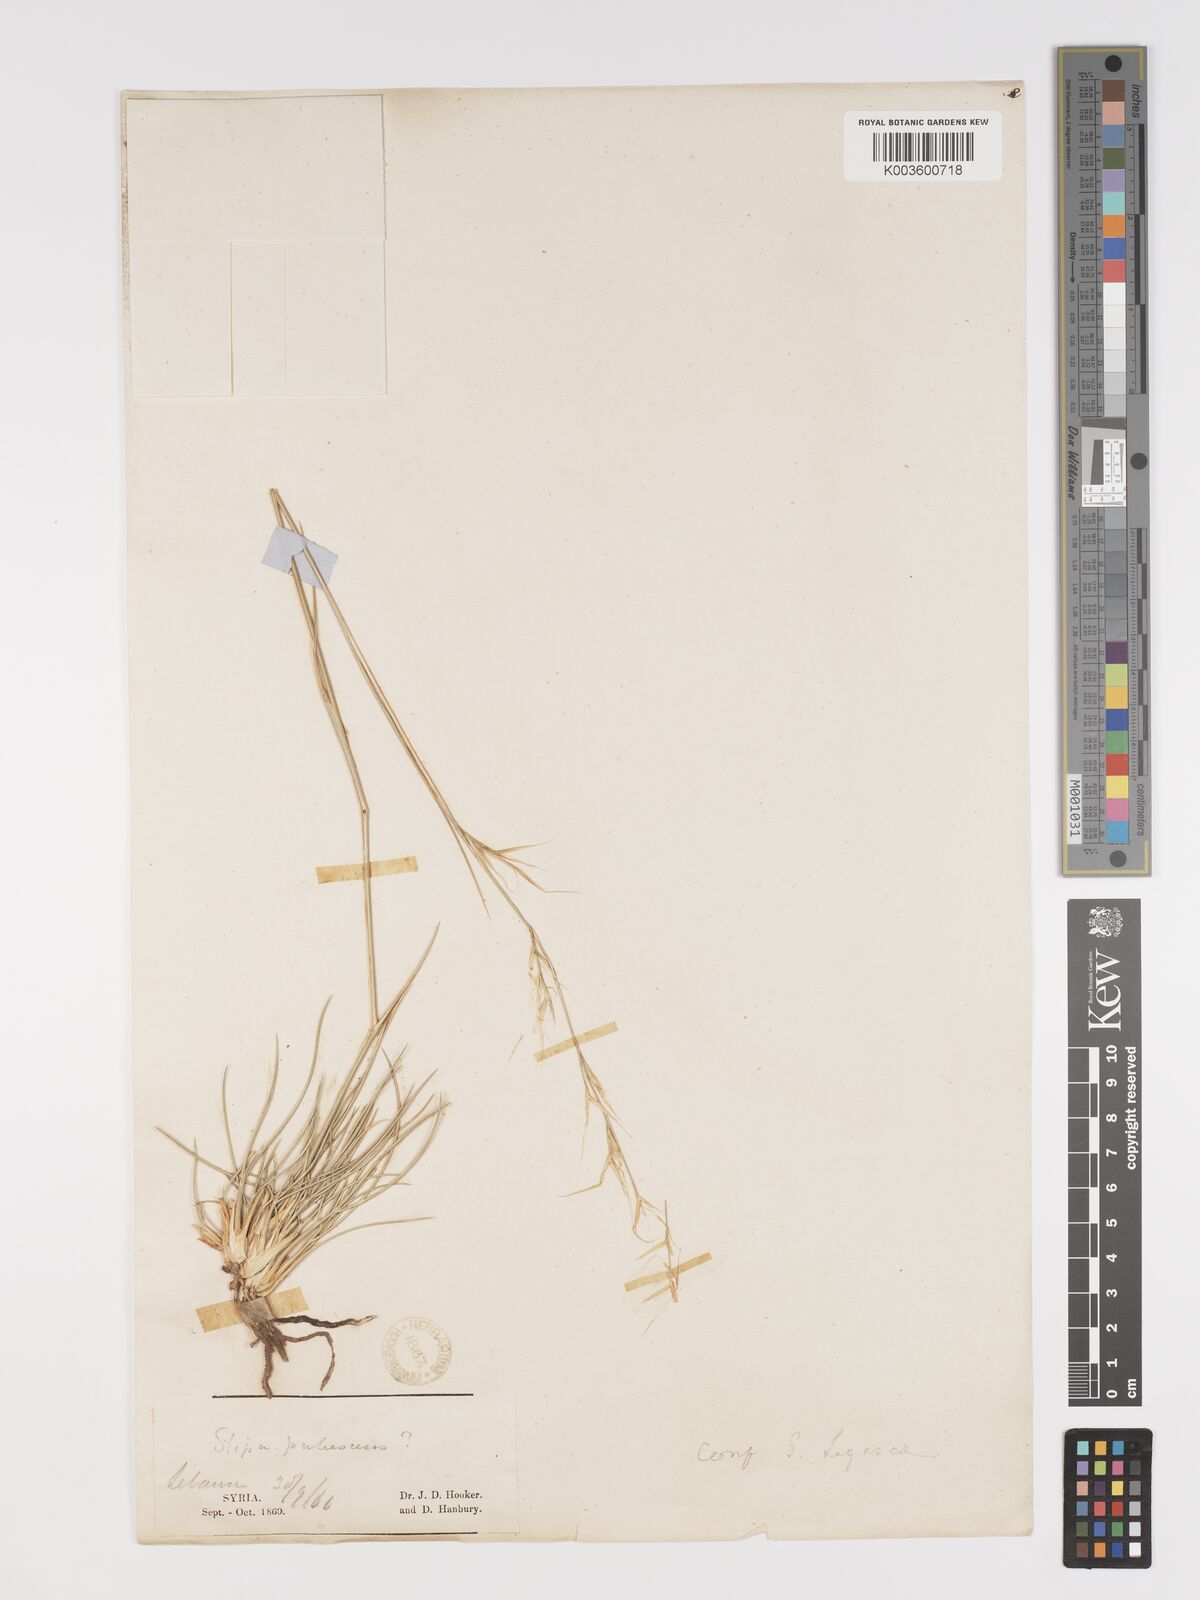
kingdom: Plantae
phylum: Tracheophyta
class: Liliopsida
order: Poales
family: Poaceae
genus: Stipa
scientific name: Stipa holosericea
